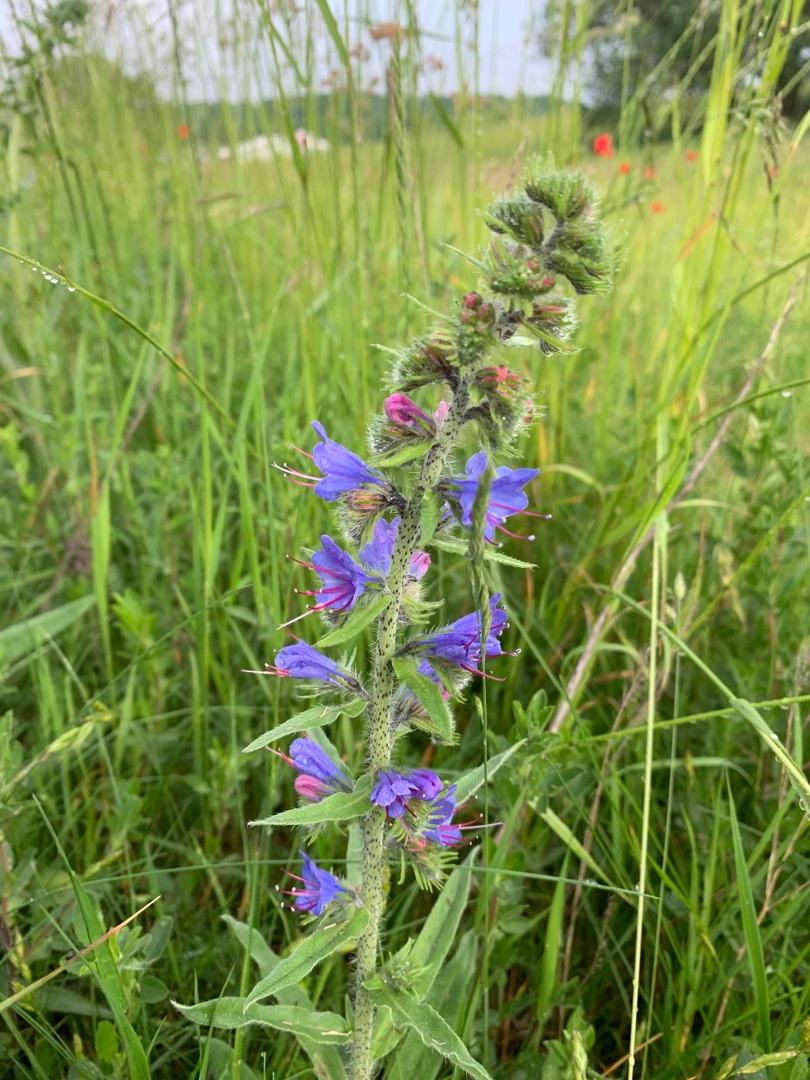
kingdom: Plantae
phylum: Tracheophyta
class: Magnoliopsida
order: Boraginales
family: Boraginaceae
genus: Echium
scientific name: Echium vulgare
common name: Slangehoved
